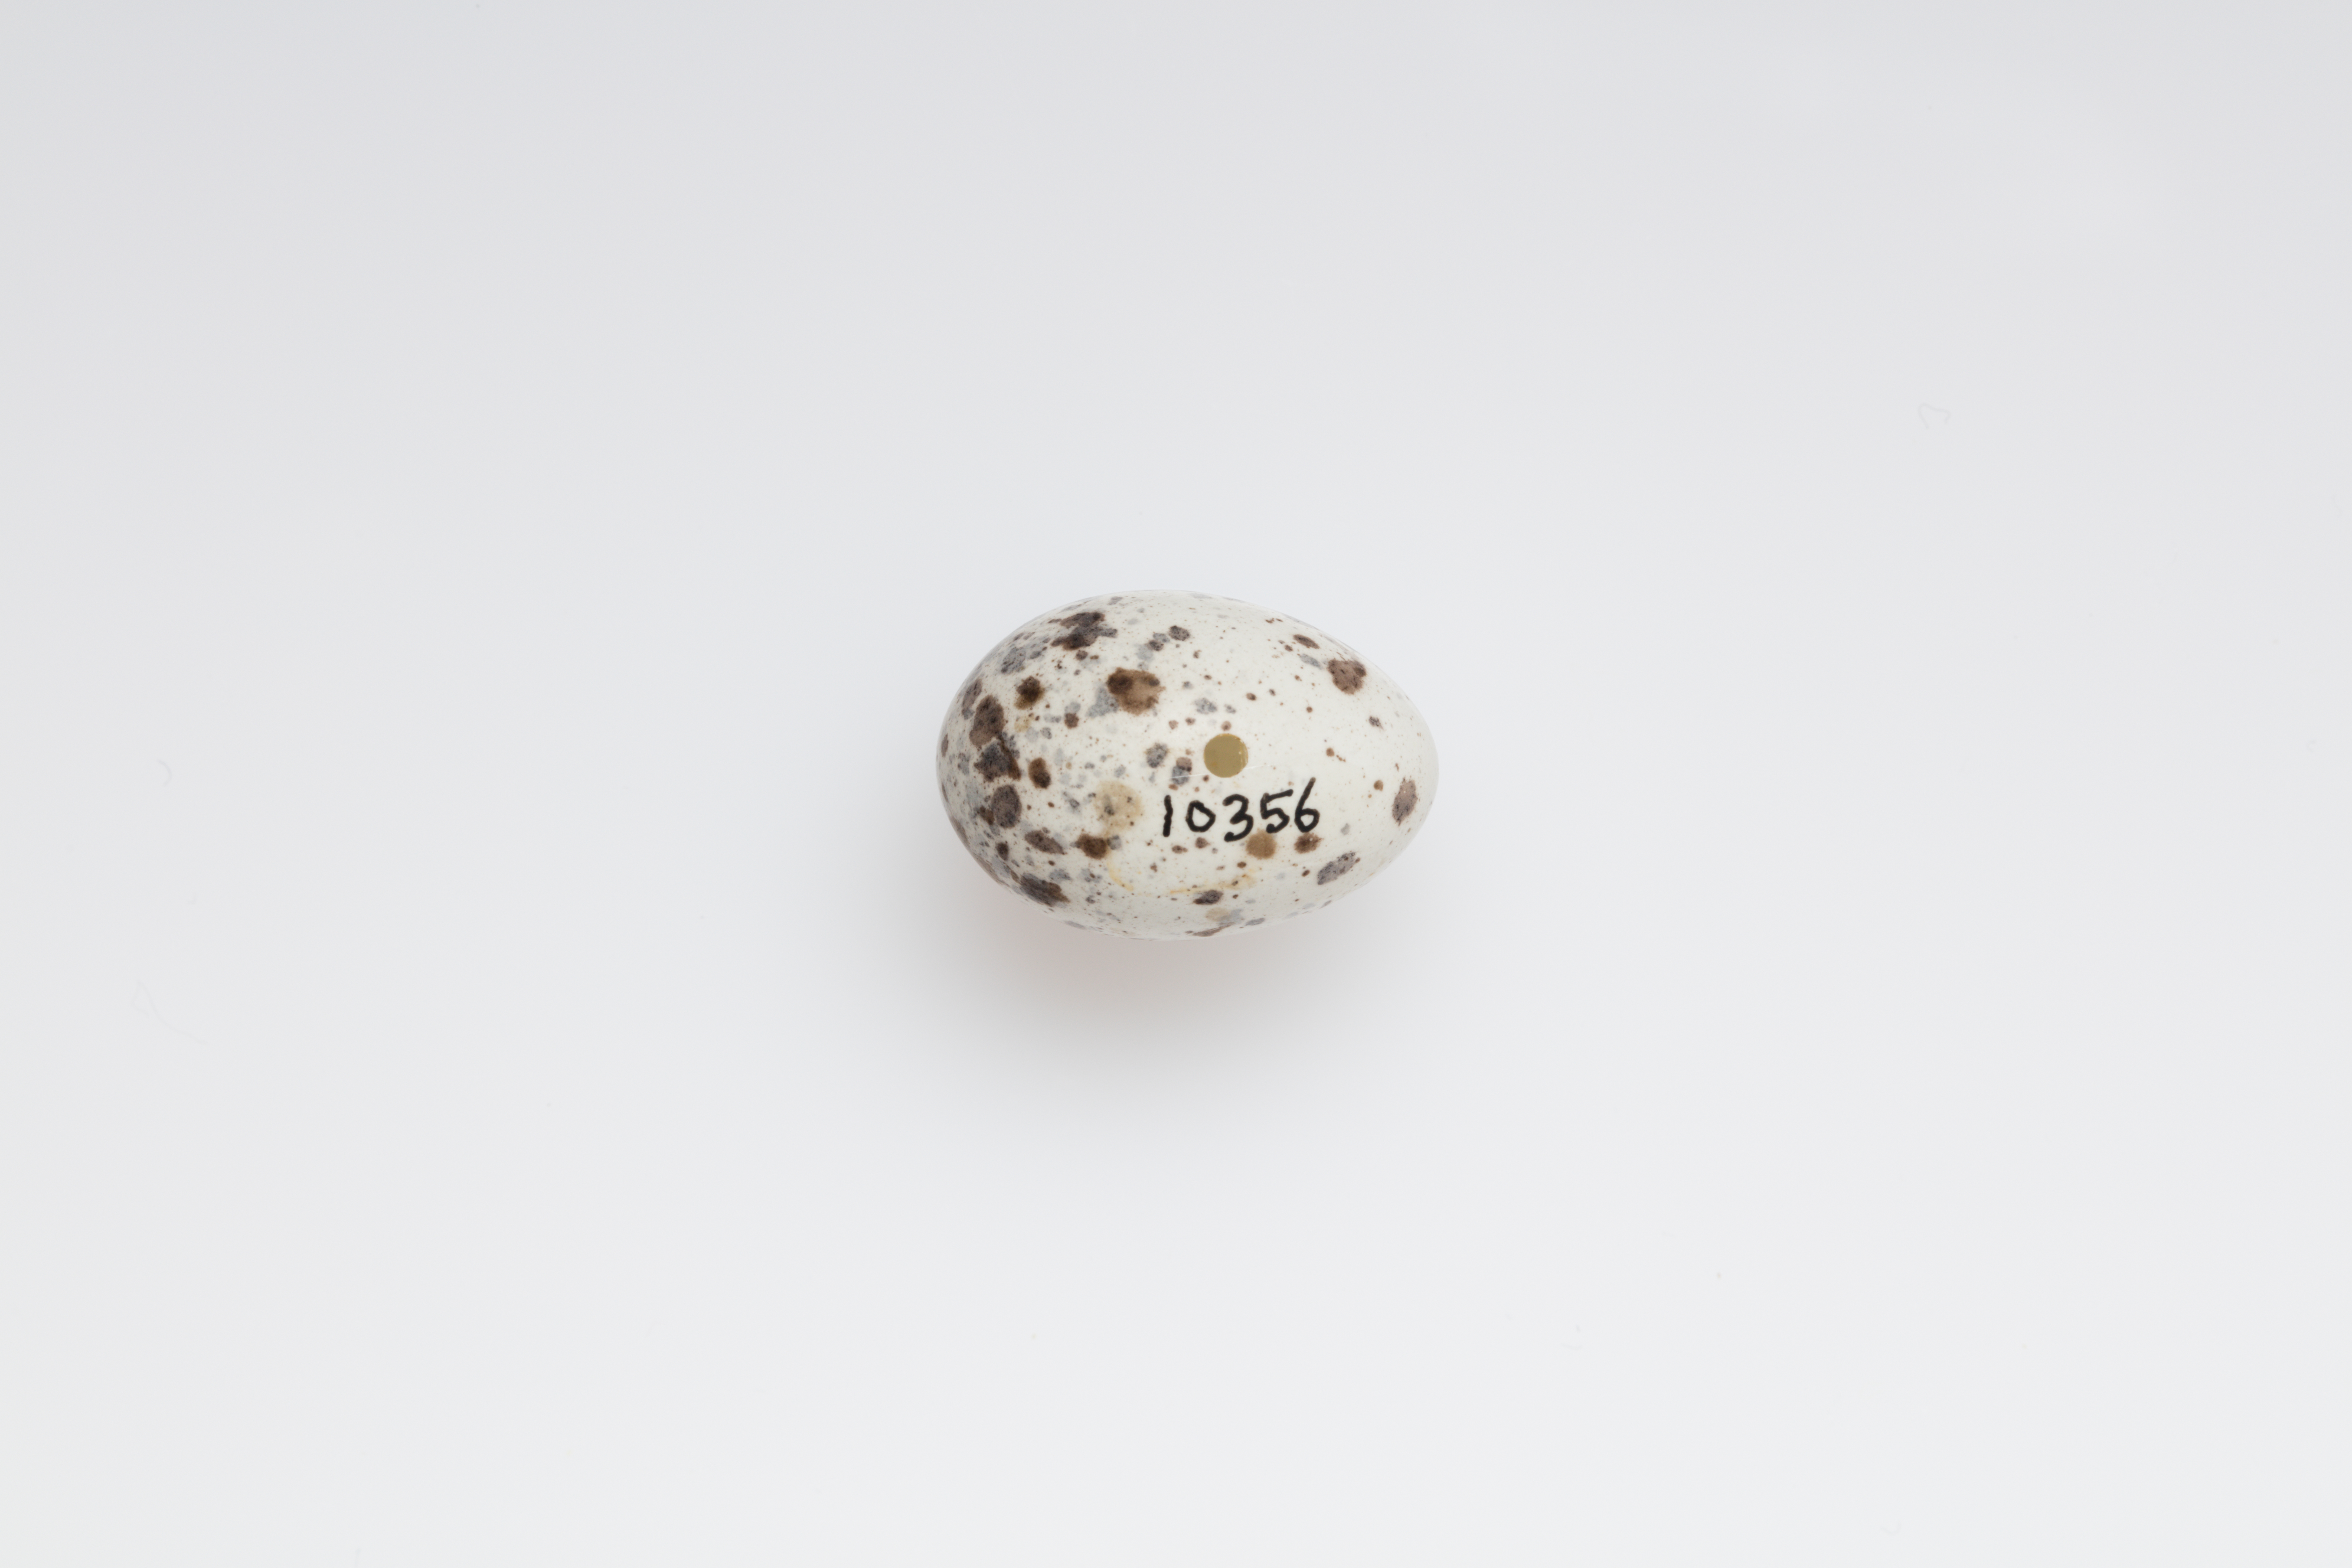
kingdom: Animalia
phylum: Chordata
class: Aves
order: Passeriformes
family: Passeridae
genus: Passer
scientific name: Passer domesticus
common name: House sparrow
